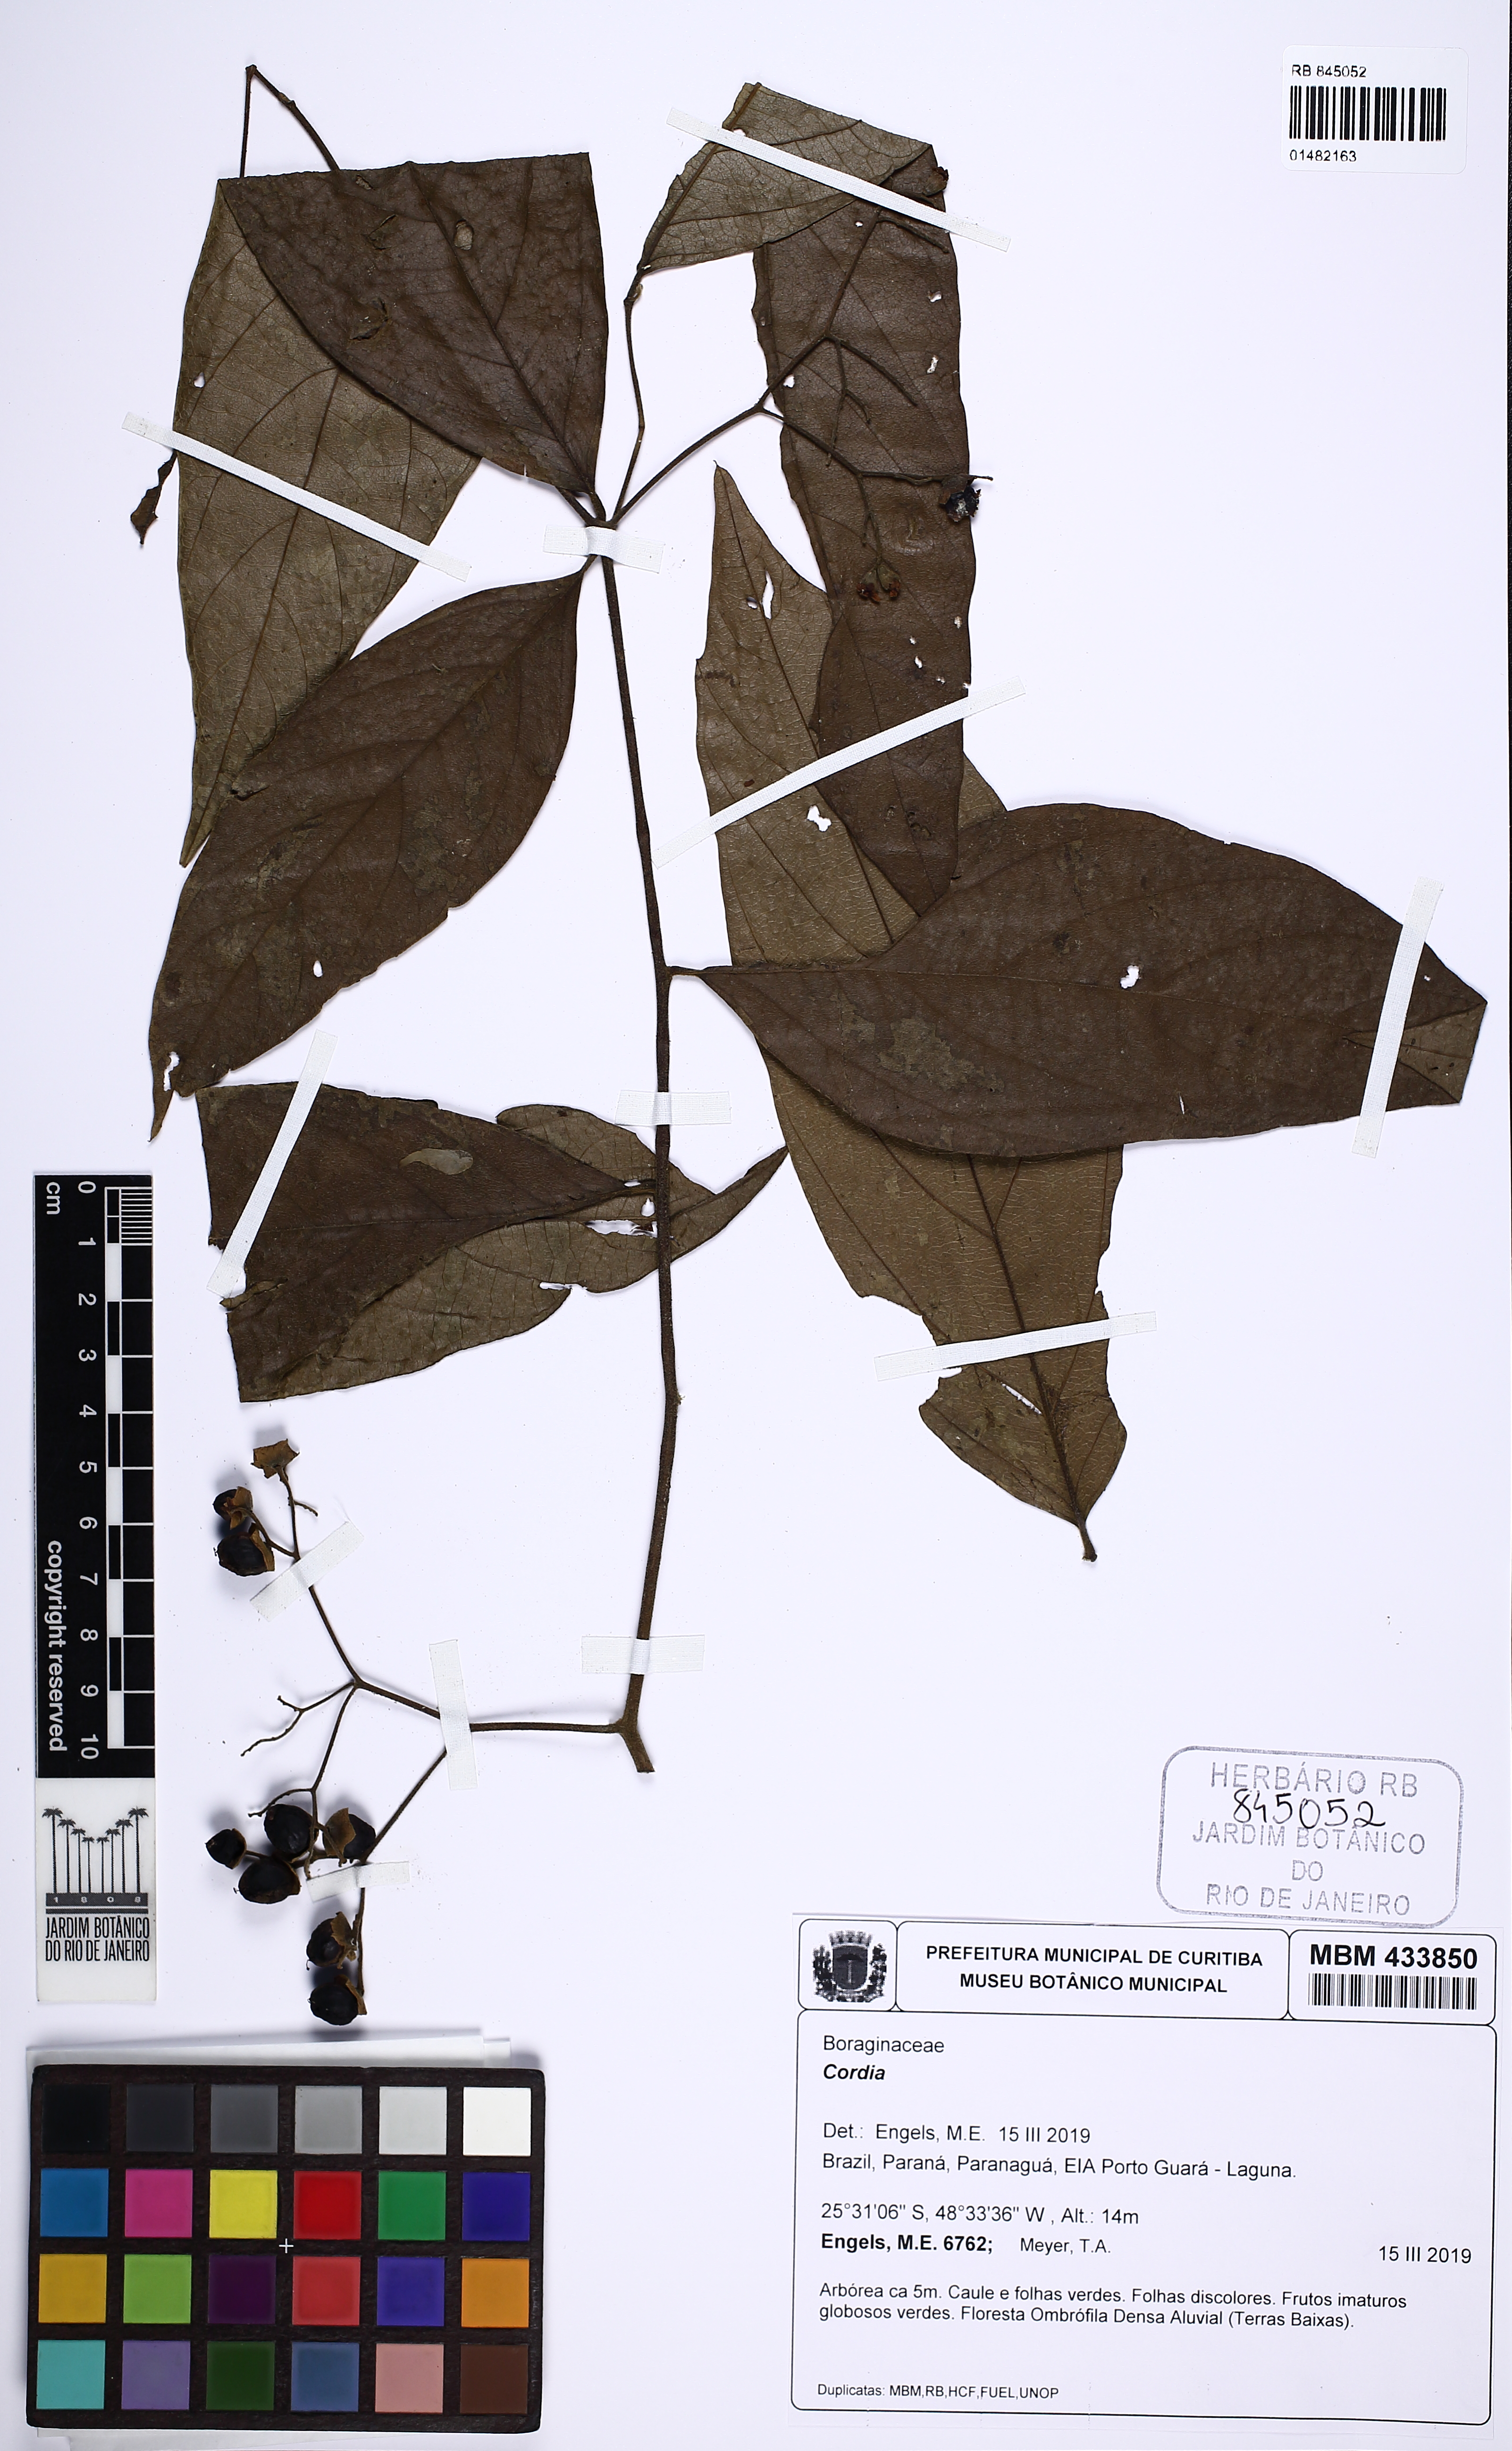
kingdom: Plantae
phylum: Tracheophyta
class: Magnoliopsida
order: Boraginales
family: Cordiaceae
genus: Cordia
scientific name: Cordia
